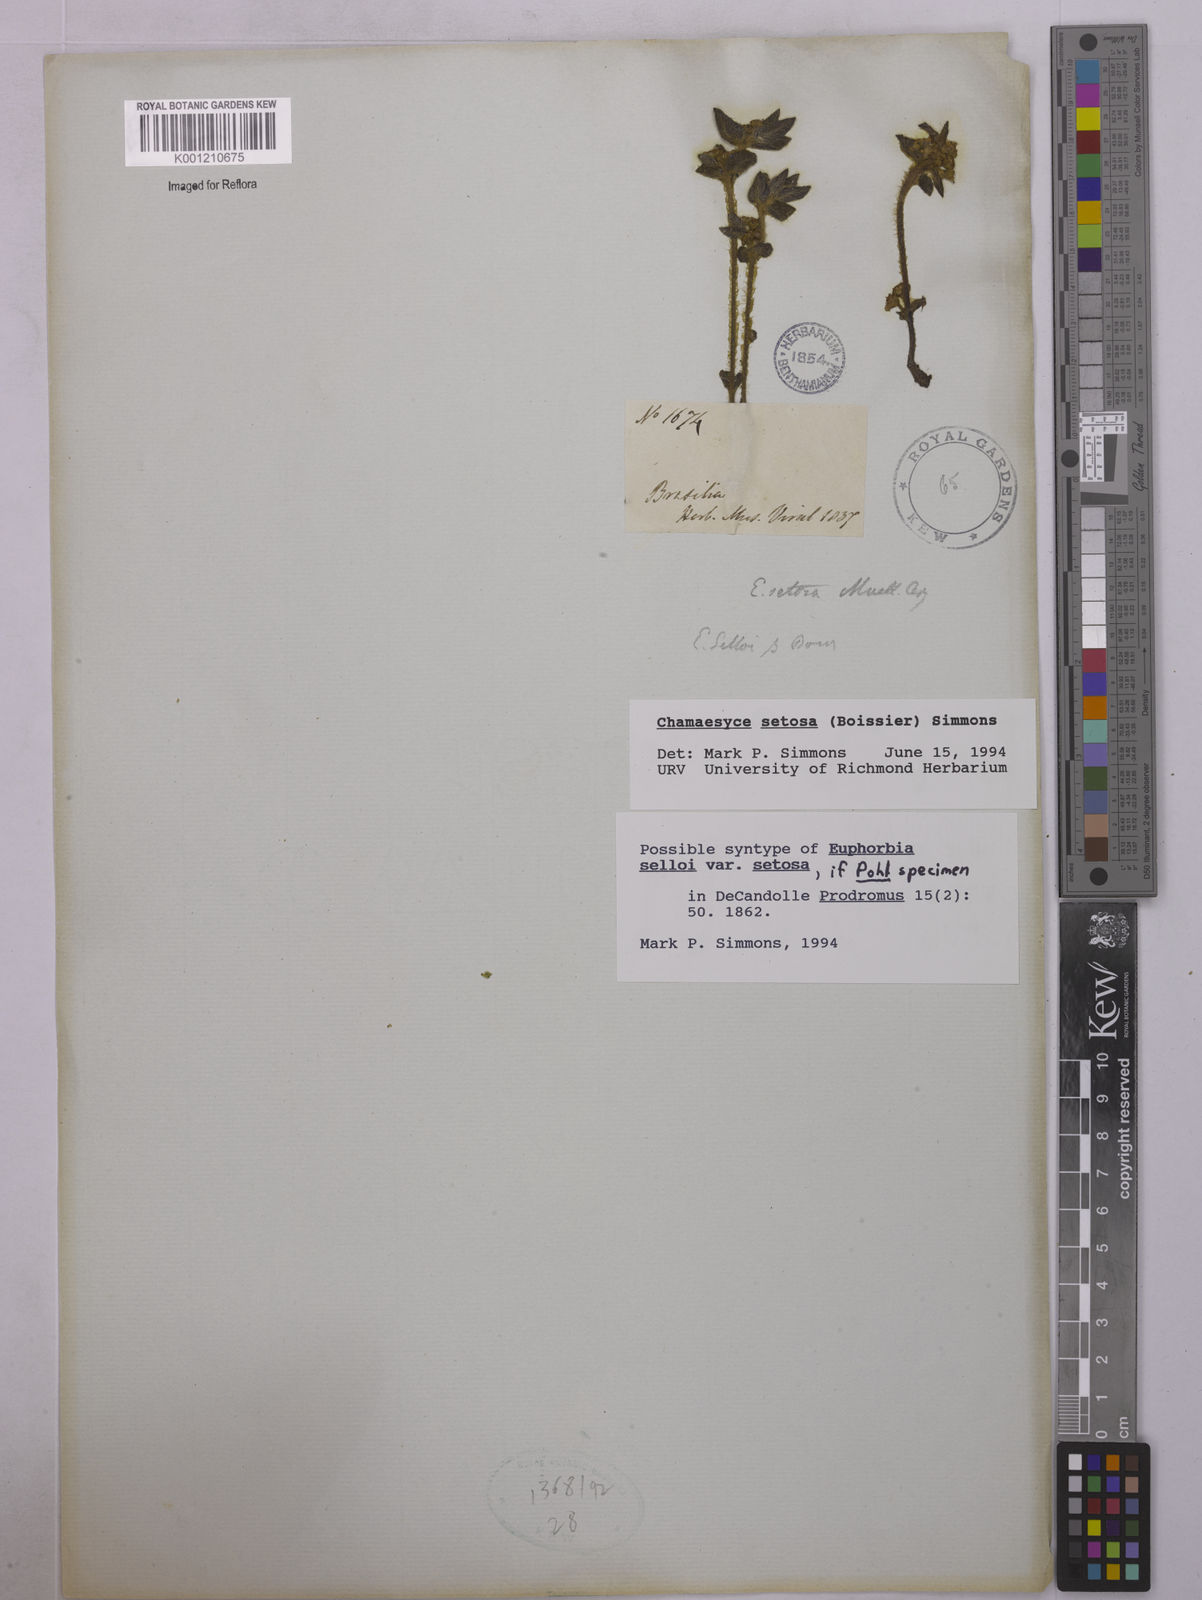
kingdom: Plantae
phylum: Tracheophyta
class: Magnoliopsida
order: Malpighiales
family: Euphorbiaceae
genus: Euphorbia
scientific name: Euphorbia selloi
